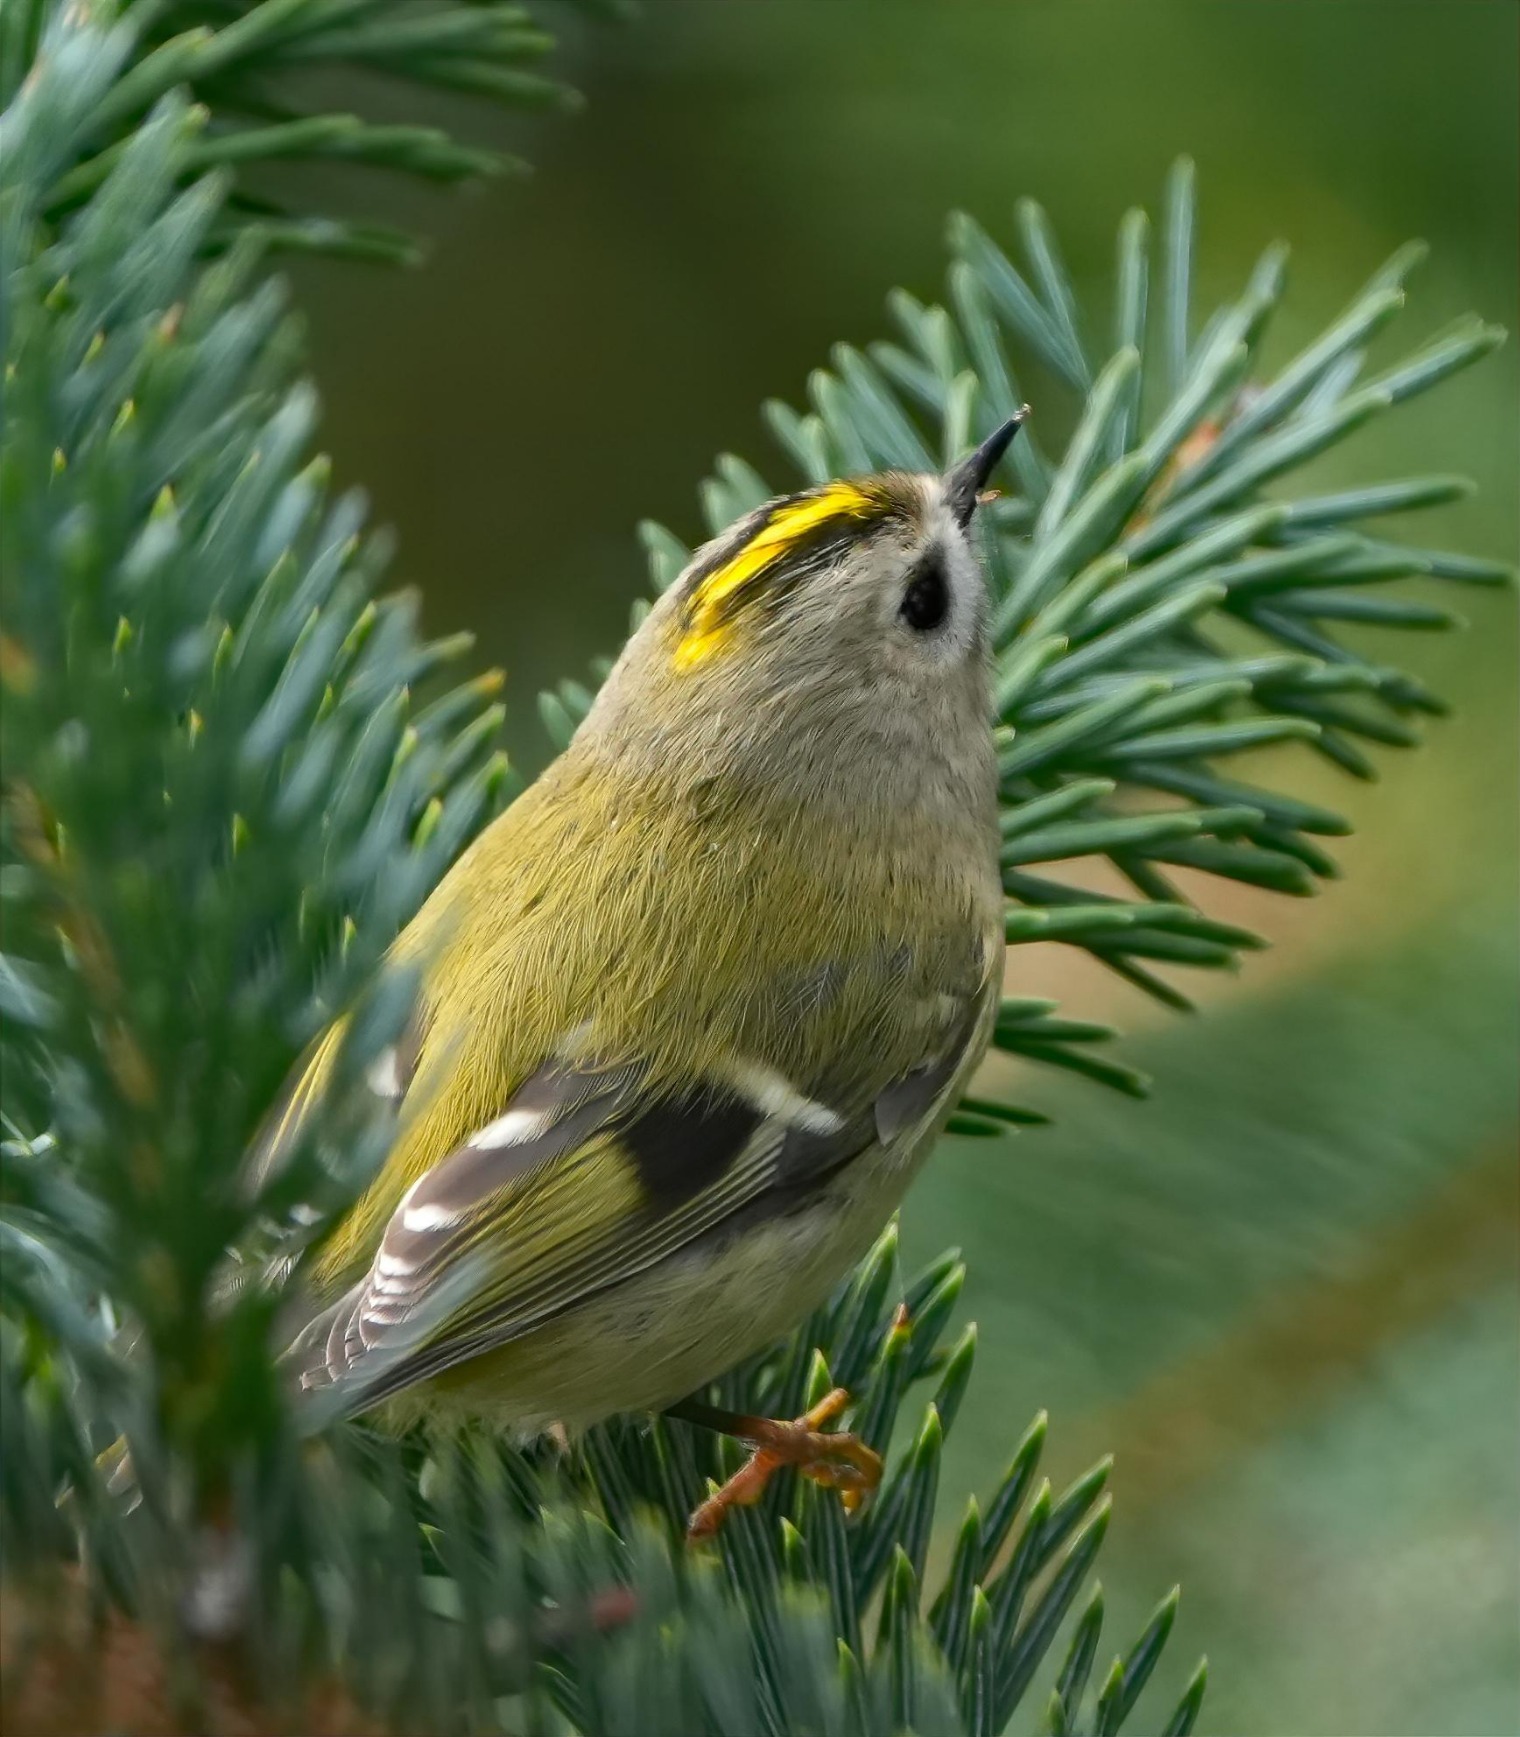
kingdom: Animalia
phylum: Chordata
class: Aves
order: Passeriformes
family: Regulidae
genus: Regulus
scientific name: Regulus regulus
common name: Fuglekonge
